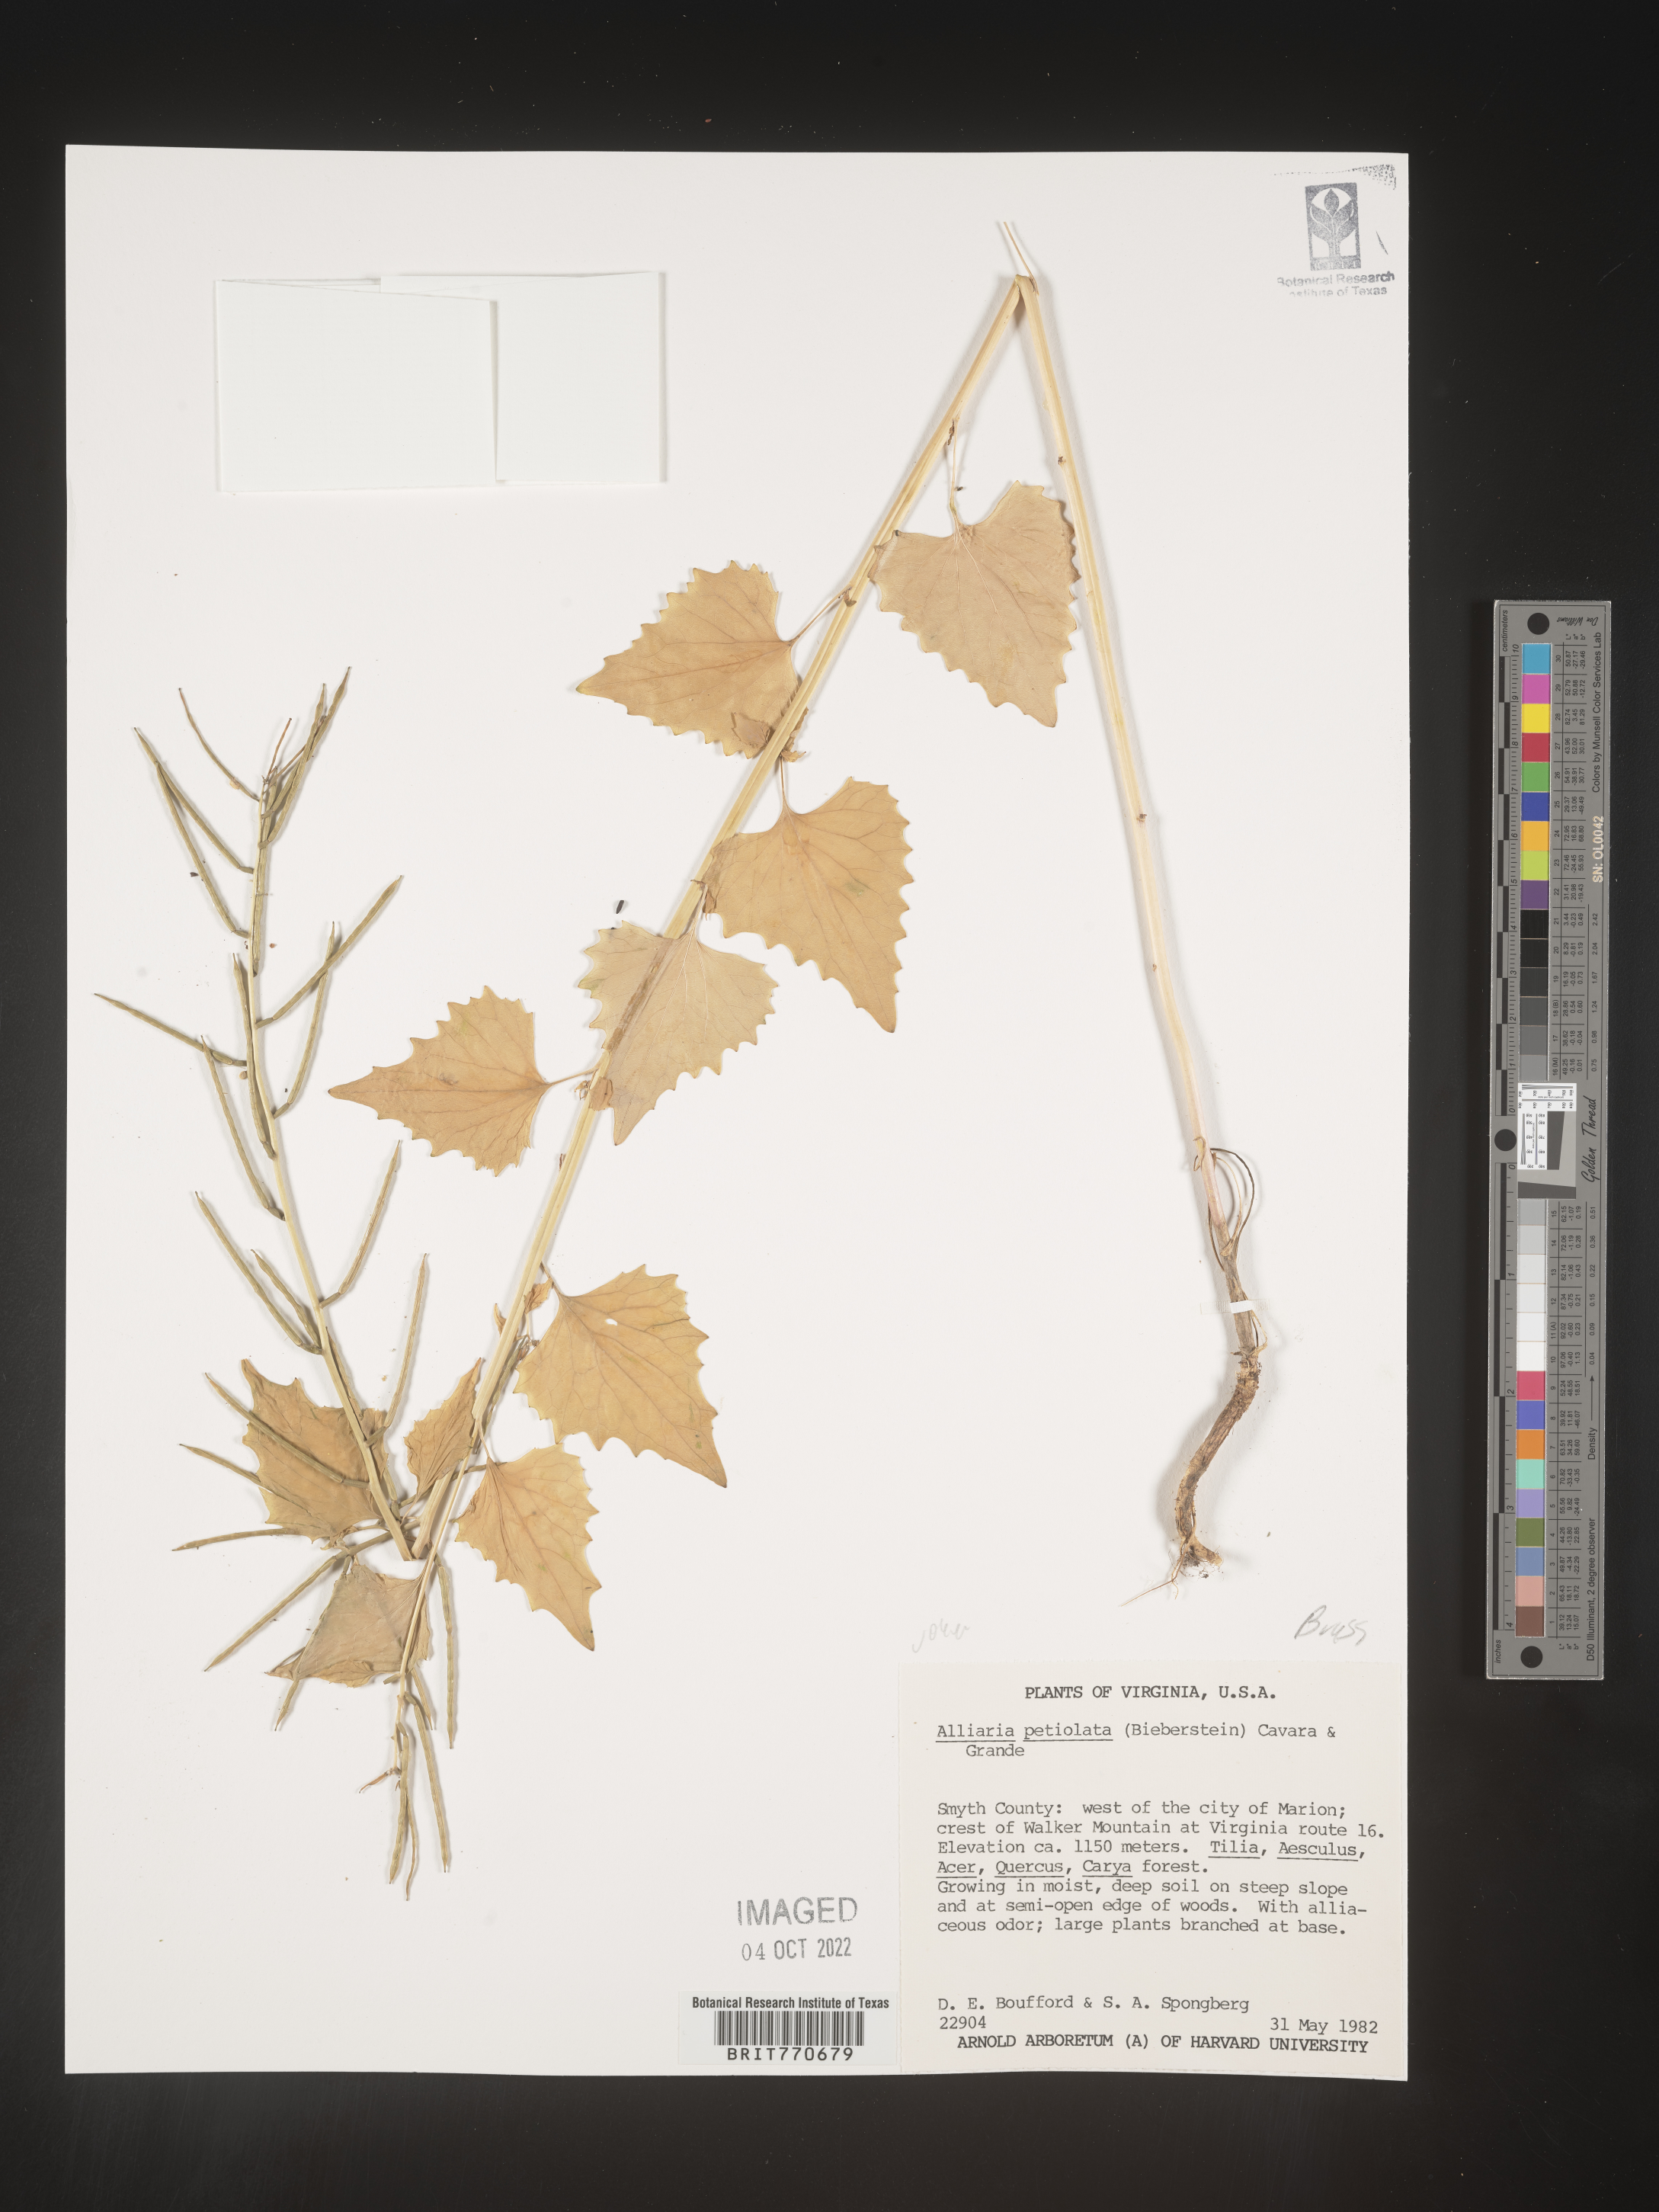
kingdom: Plantae
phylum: Tracheophyta
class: Magnoliopsida
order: Brassicales
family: Brassicaceae
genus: Alliaria
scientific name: Alliaria
